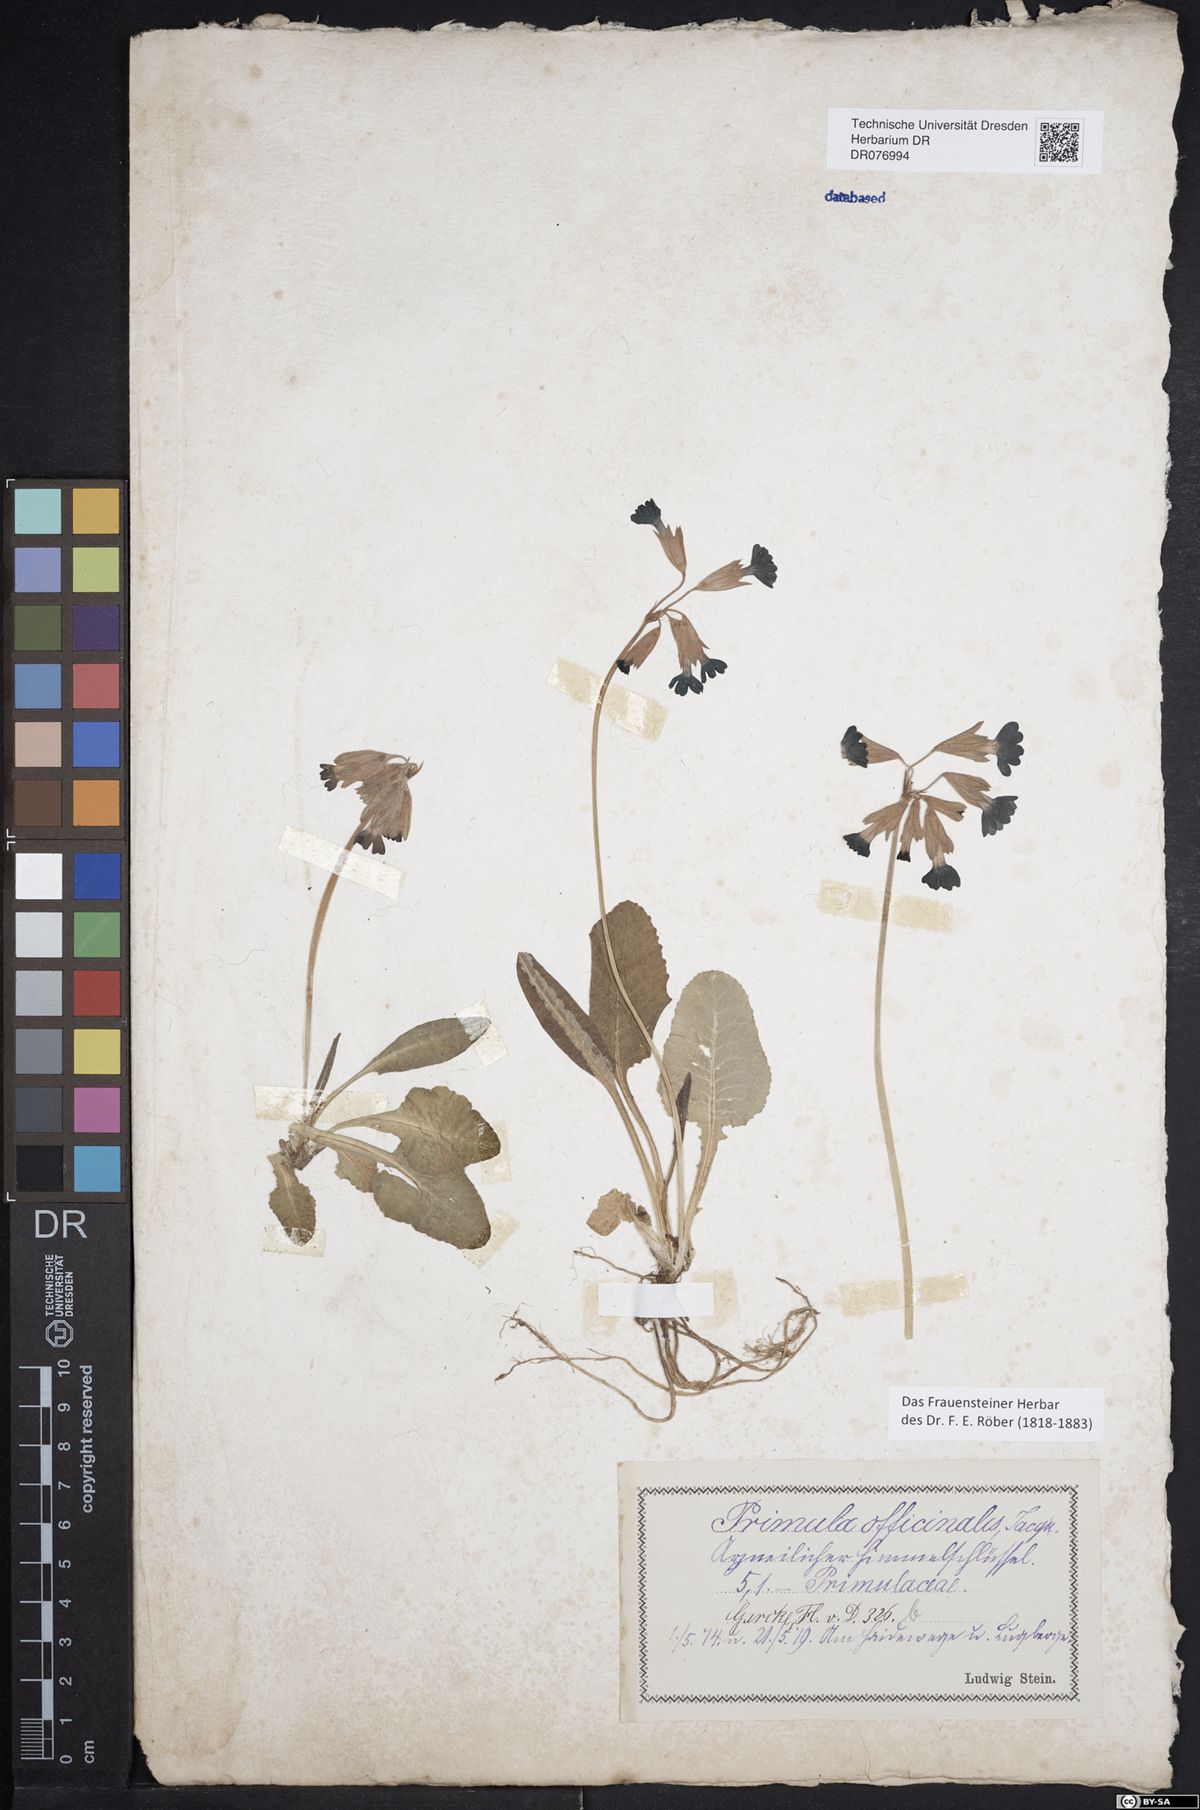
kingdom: Plantae
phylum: Tracheophyta
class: Magnoliopsida
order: Ericales
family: Primulaceae
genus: Primula
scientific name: Primula veris
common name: Cowslip
